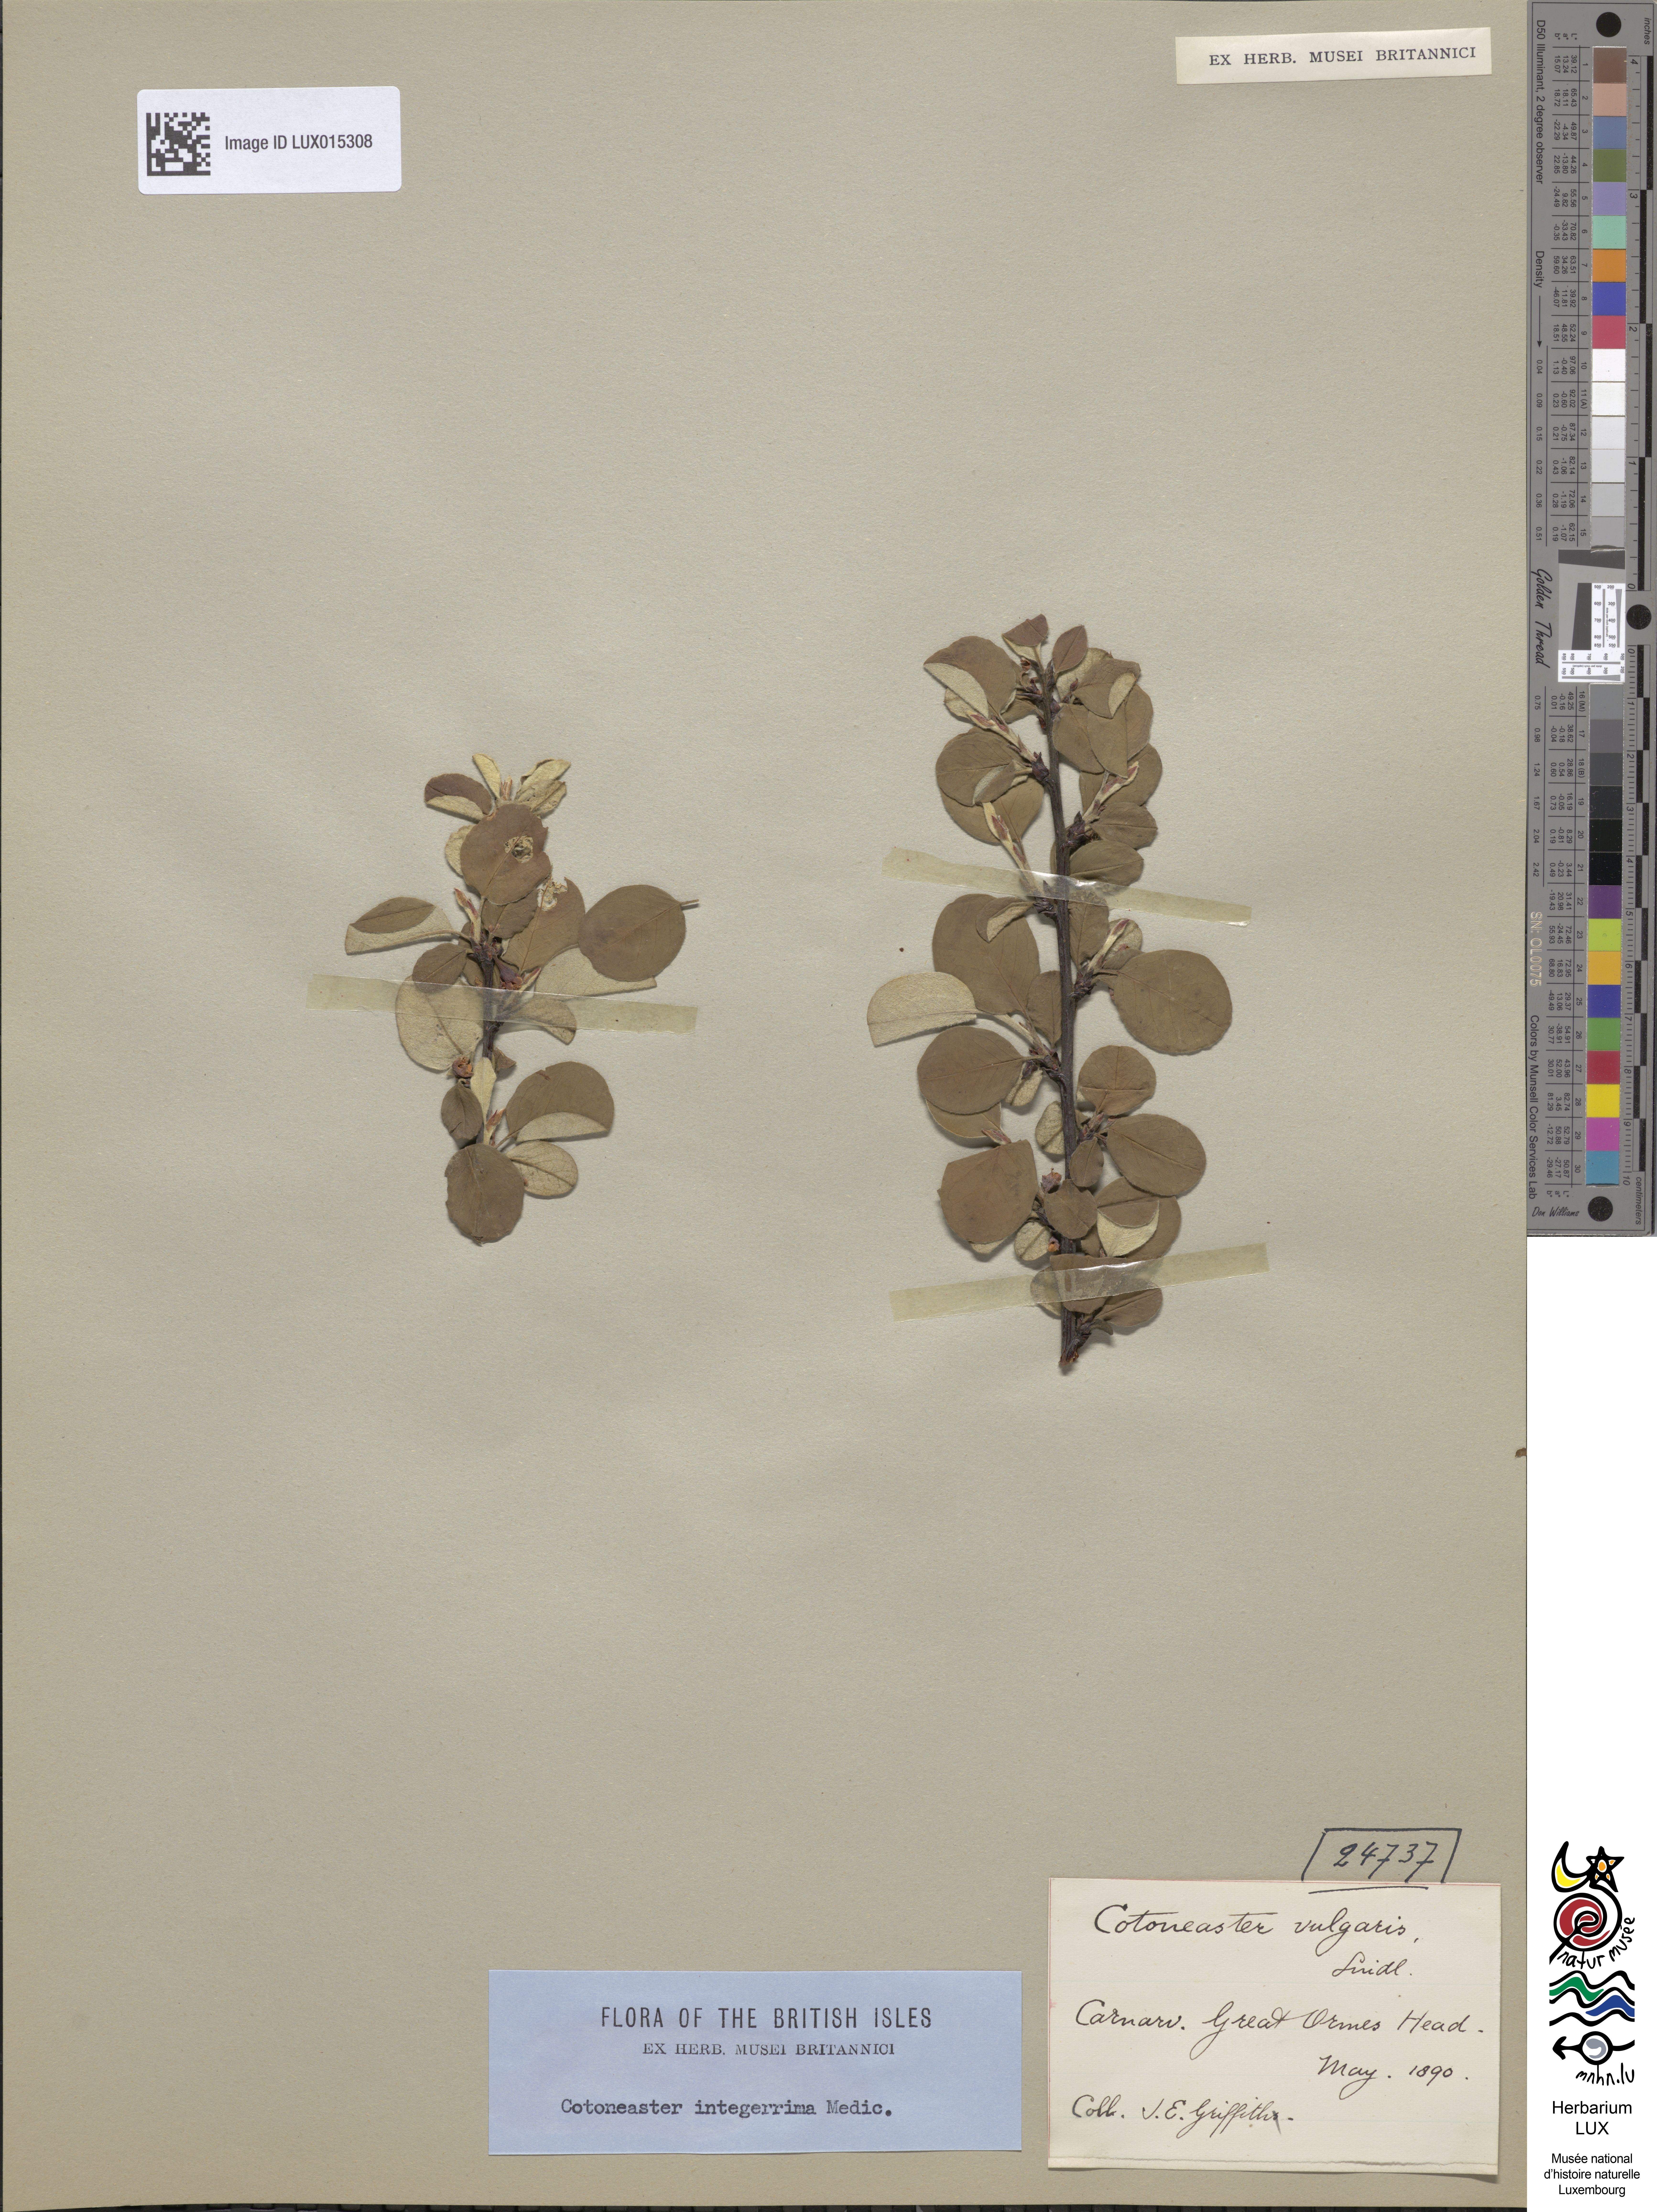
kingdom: Plantae
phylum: Tracheophyta
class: Magnoliopsida
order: Rosales
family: Rosaceae
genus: Cotoneaster
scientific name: Cotoneaster integerrimus
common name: Wild cotoneaster
